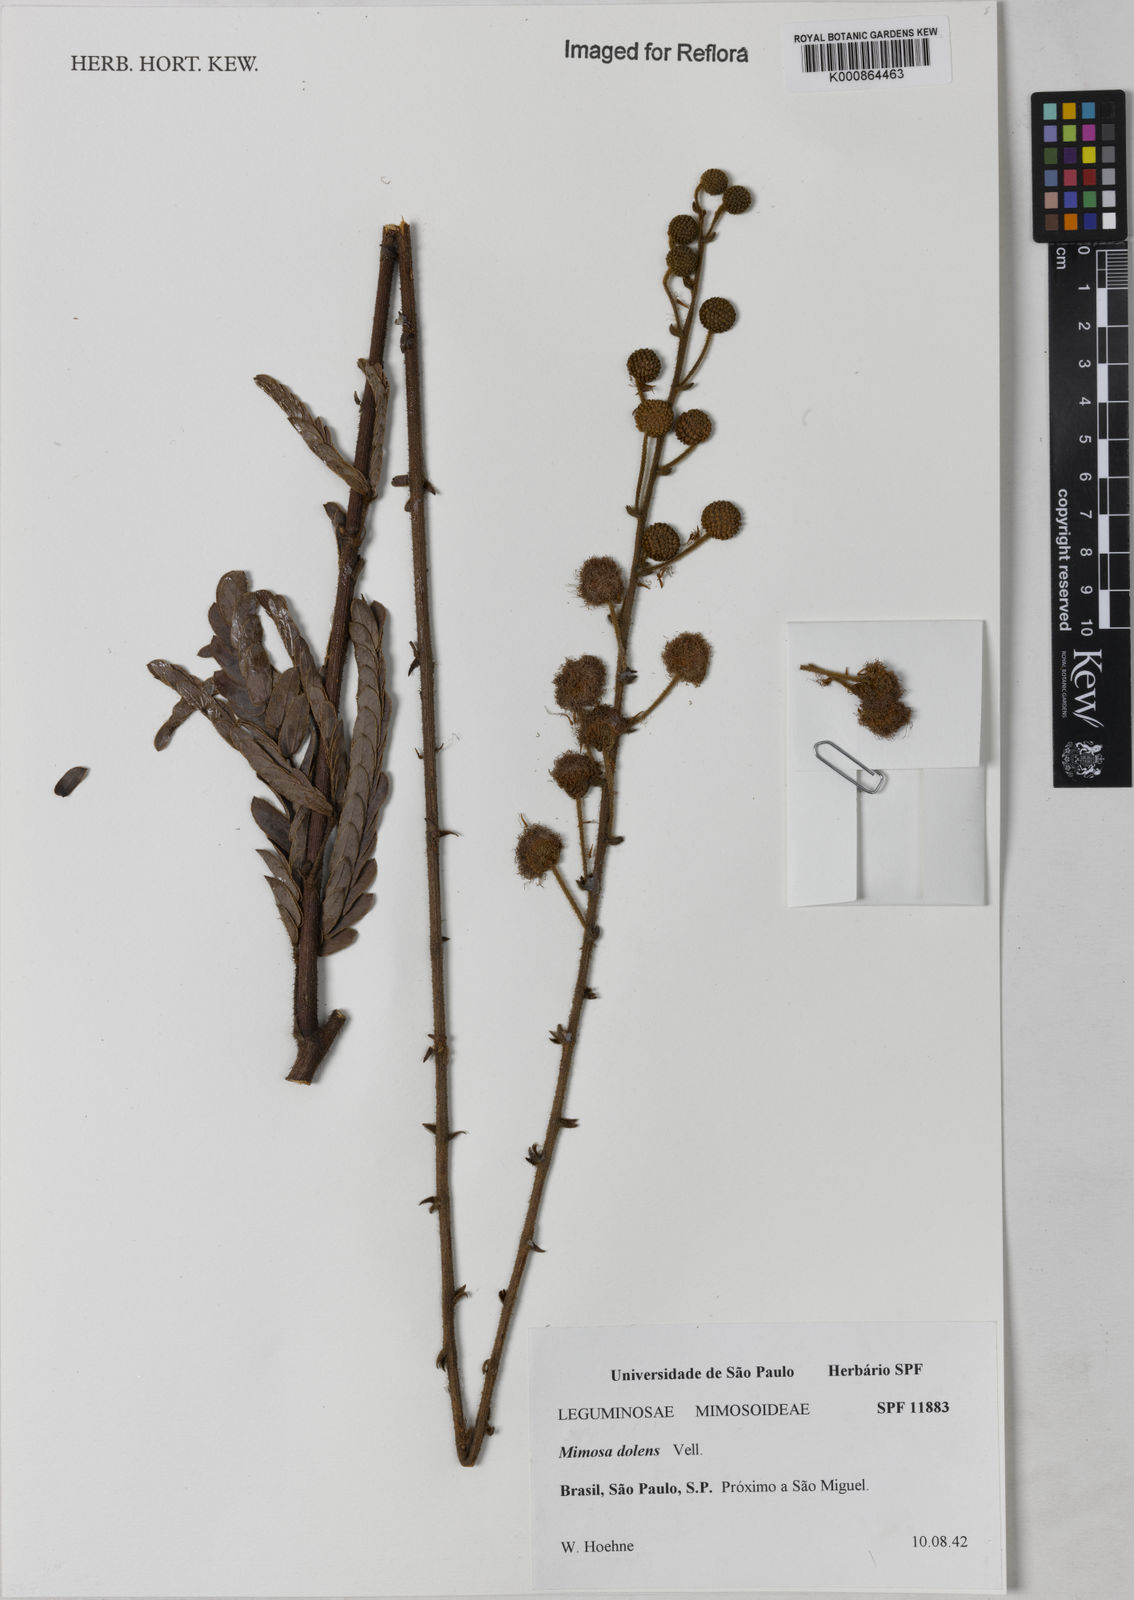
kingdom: Plantae
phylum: Tracheophyta
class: Magnoliopsida
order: Fabales
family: Fabaceae
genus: Mimosa
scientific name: Mimosa dolens
